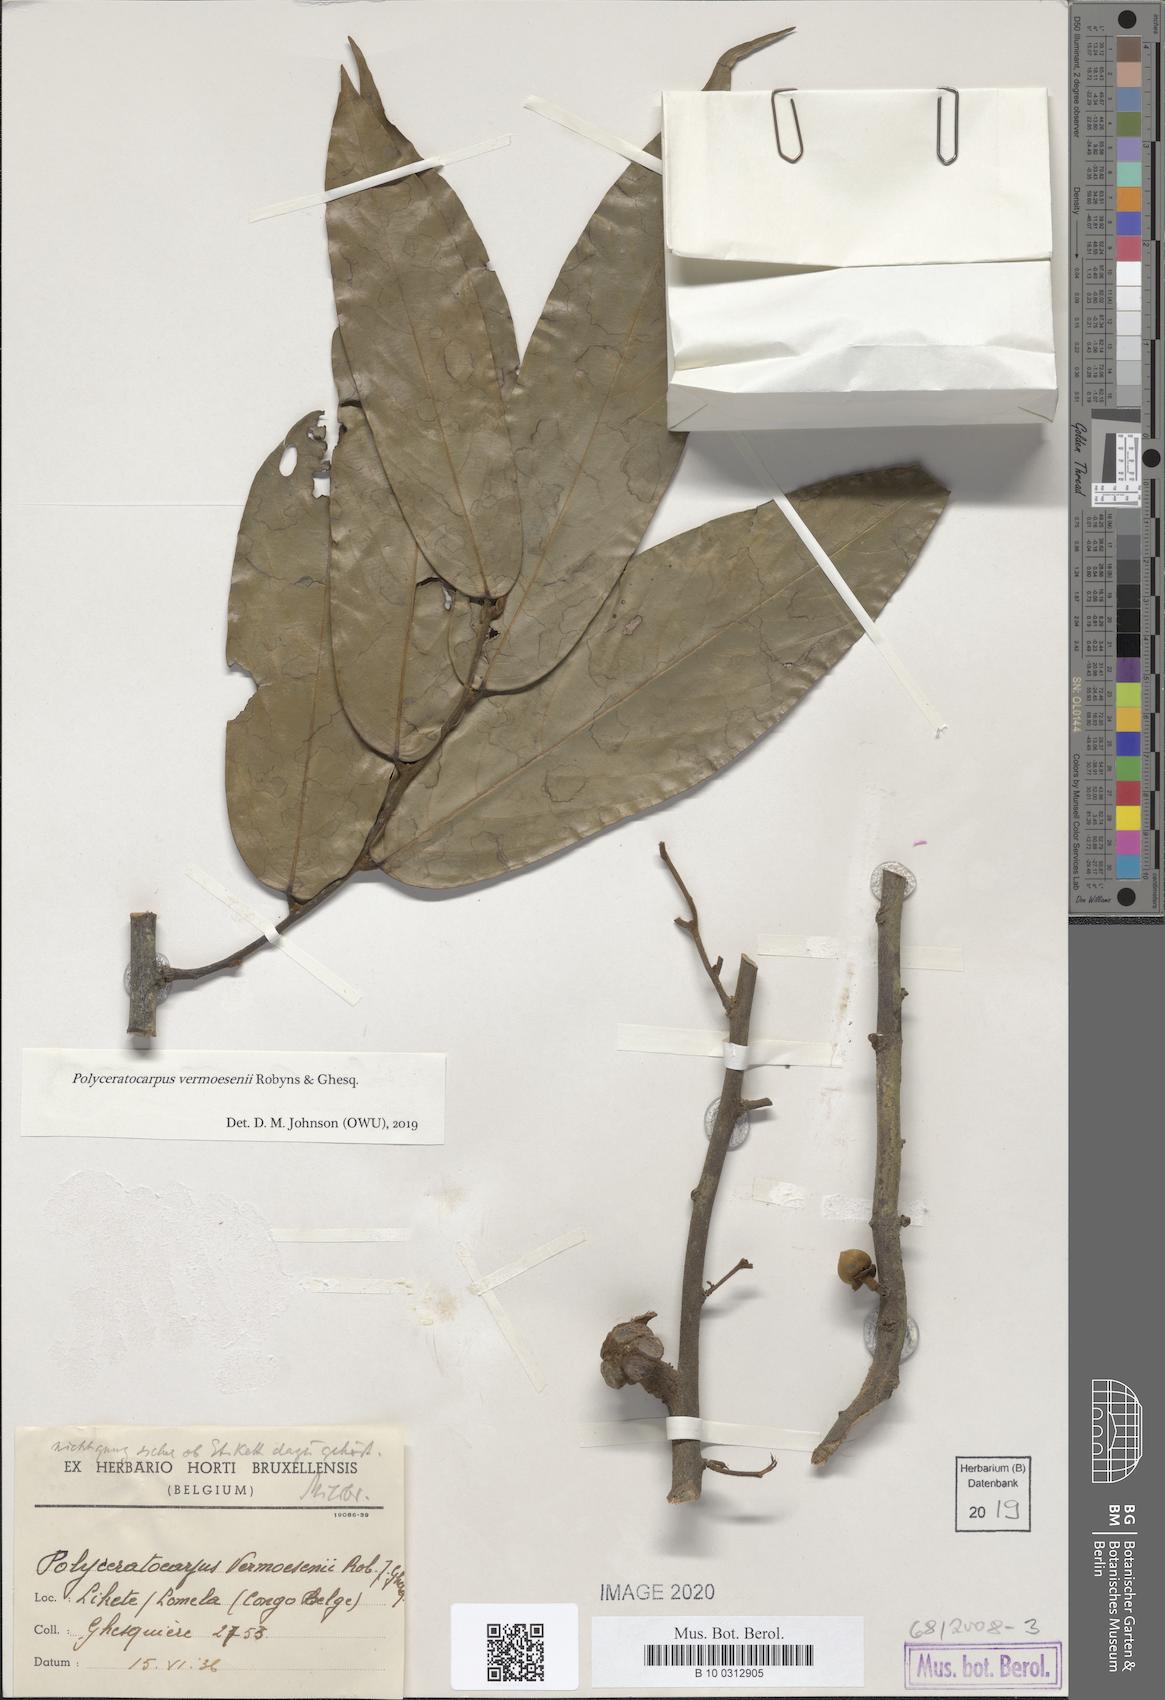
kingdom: Plantae
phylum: Tracheophyta
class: Magnoliopsida
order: Magnoliales
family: Annonaceae
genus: Polyceratocarpus
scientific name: Polyceratocarpus gossweileri
